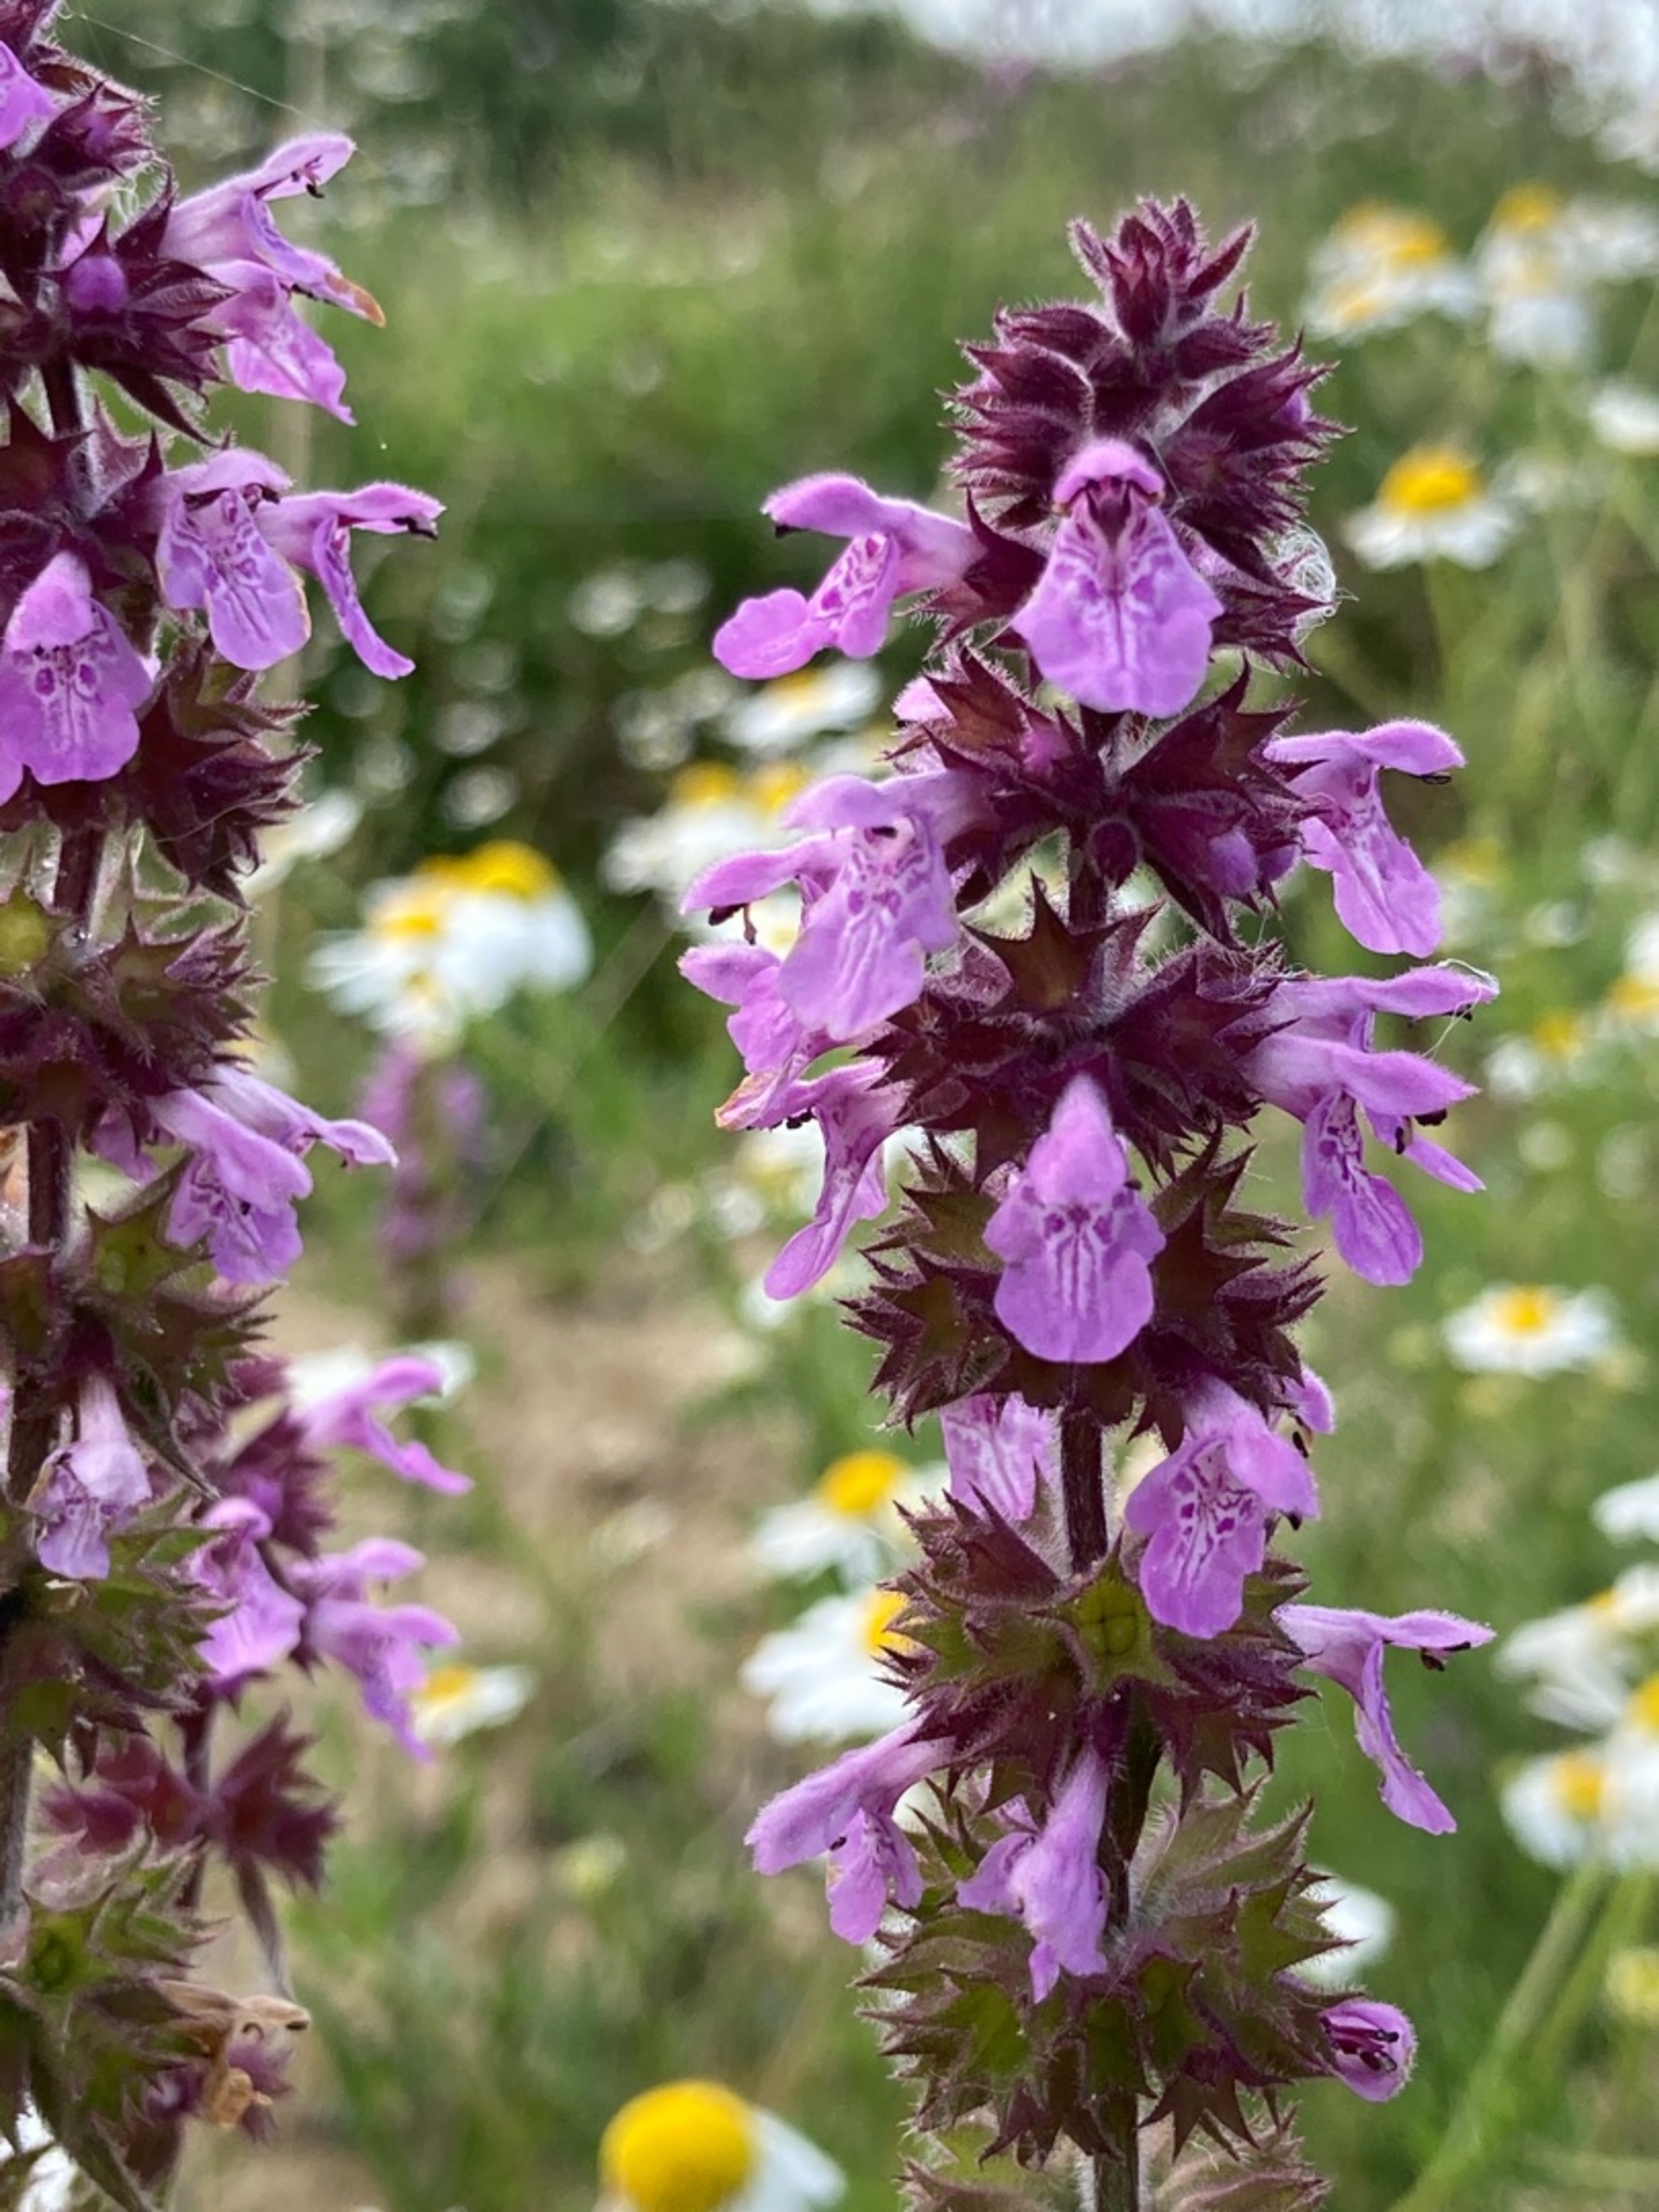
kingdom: Plantae
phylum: Tracheophyta
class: Magnoliopsida
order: Lamiales
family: Lamiaceae
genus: Stachys
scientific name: Stachys palustris
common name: Kær-galtetand
